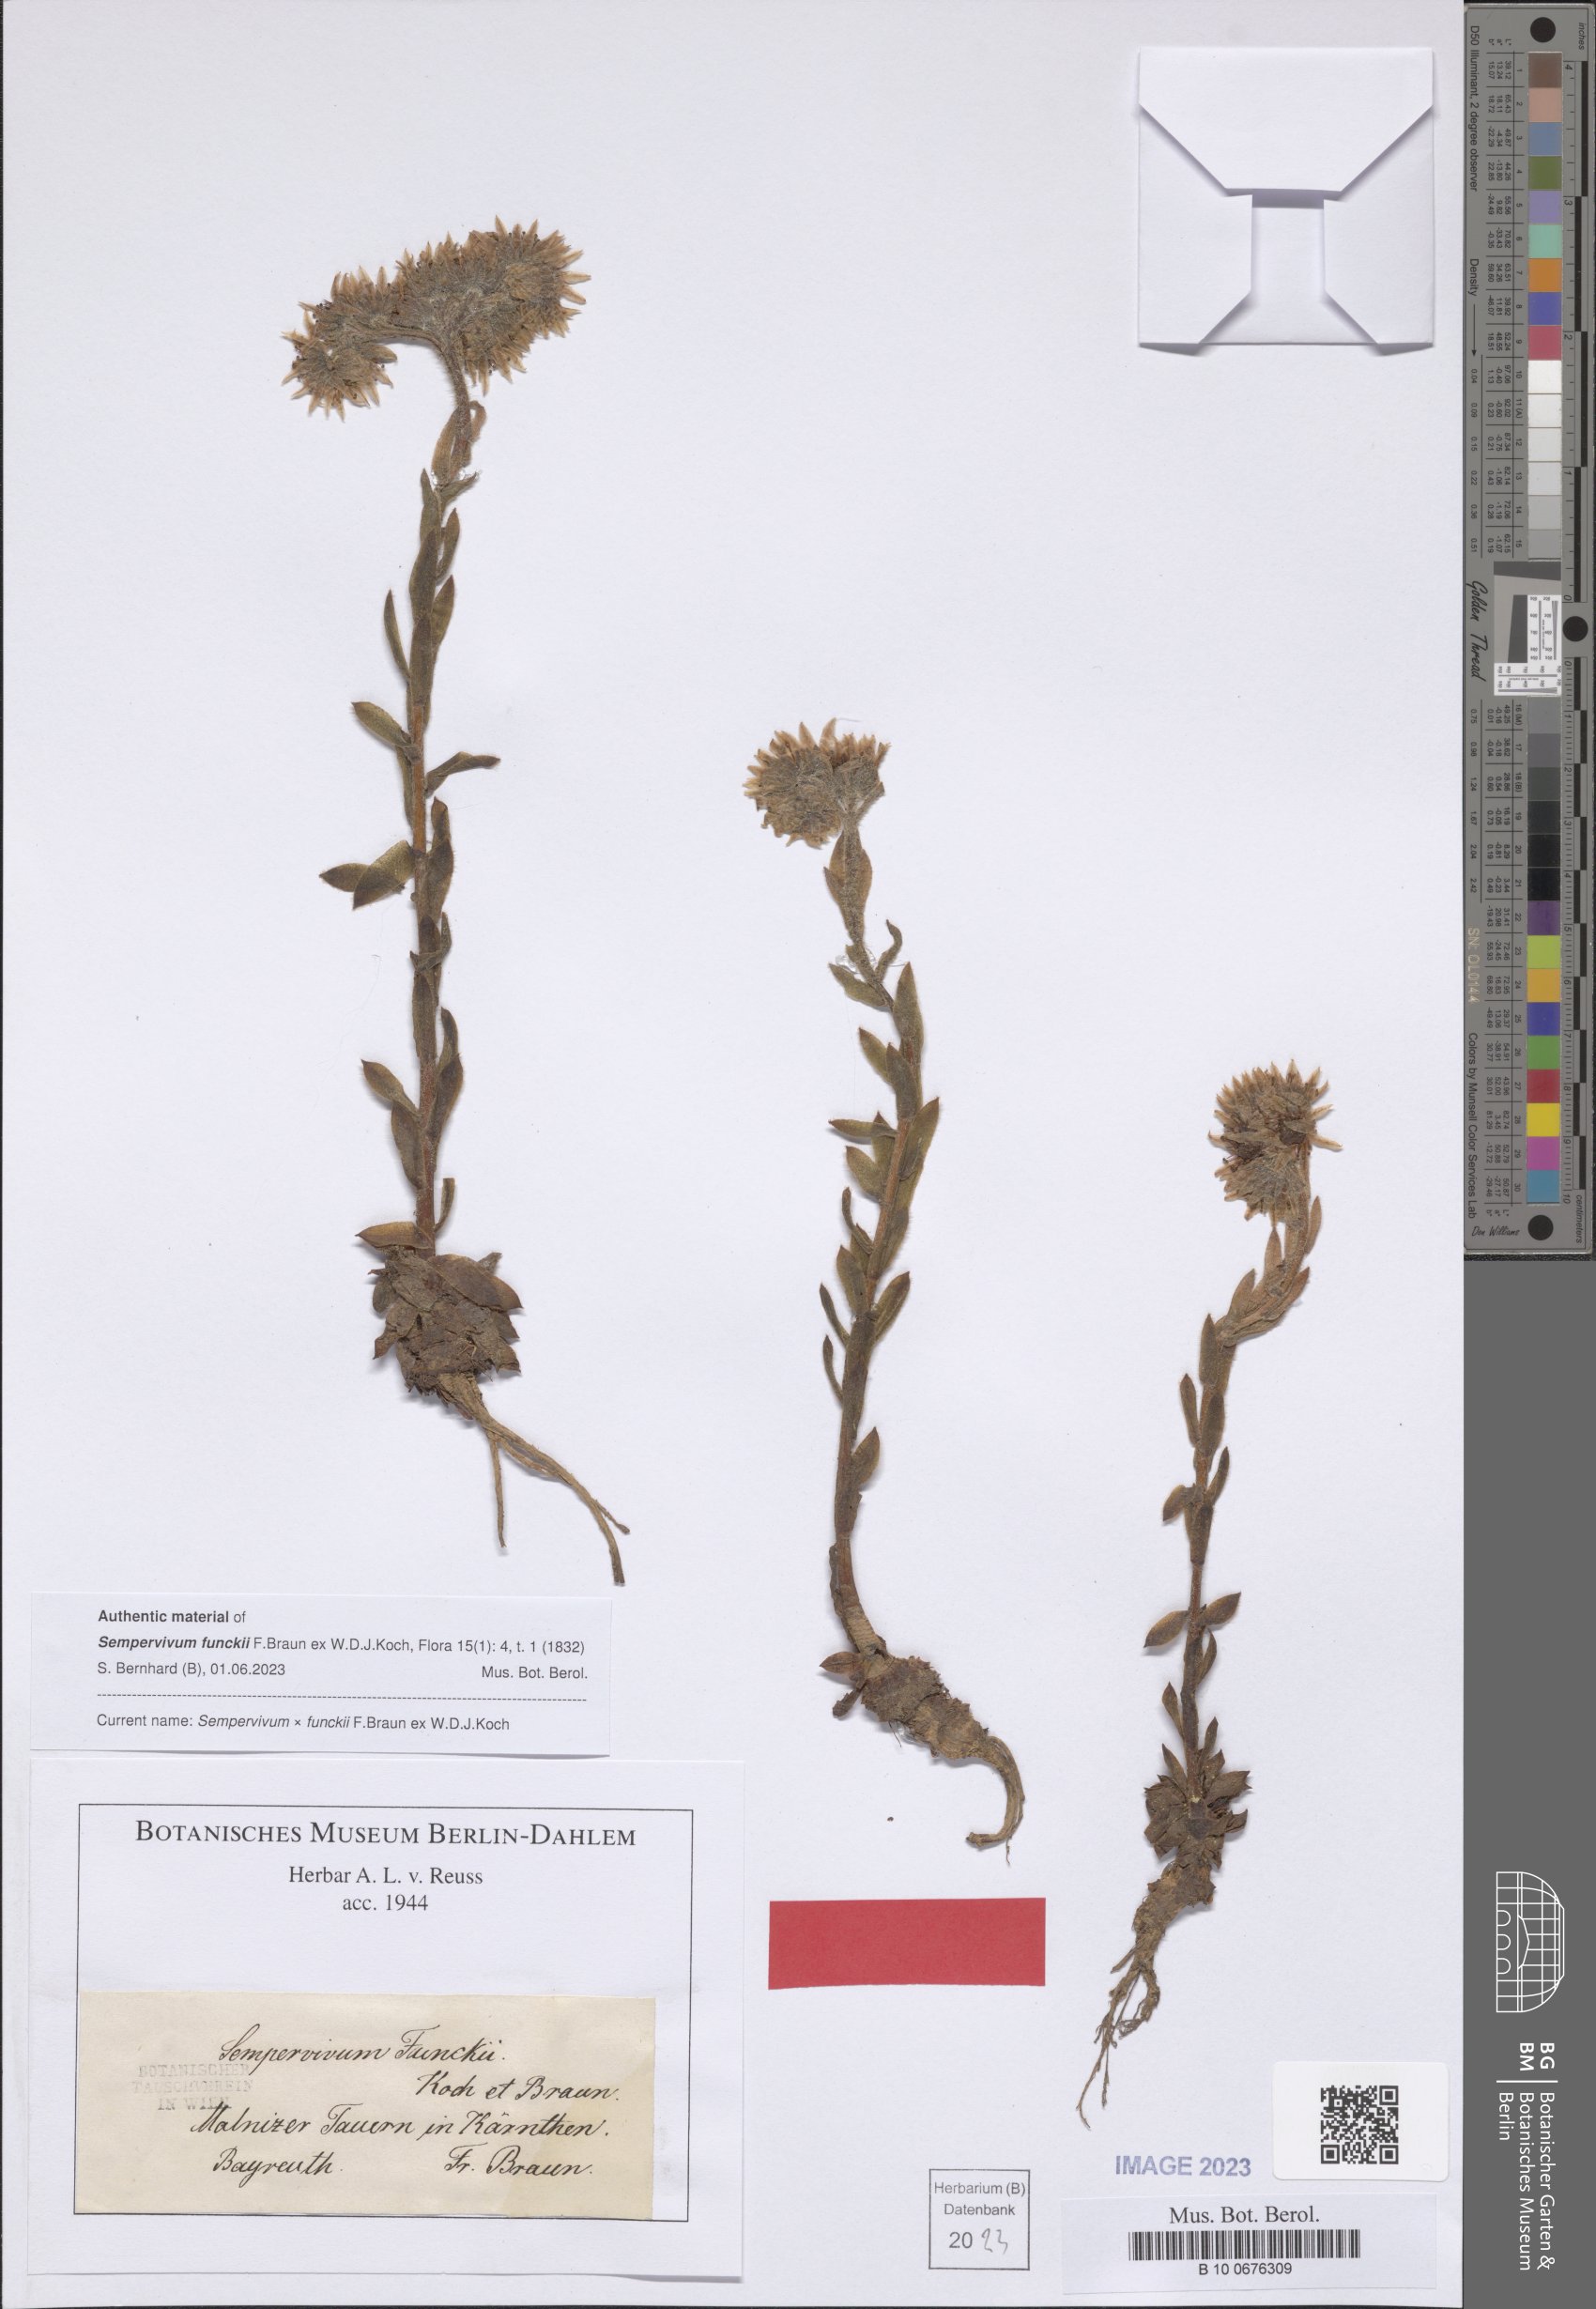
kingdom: Plantae
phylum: Tracheophyta
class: Magnoliopsida
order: Saxifragales
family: Crassulaceae
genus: Sempervivum
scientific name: Sempervivum funckii
